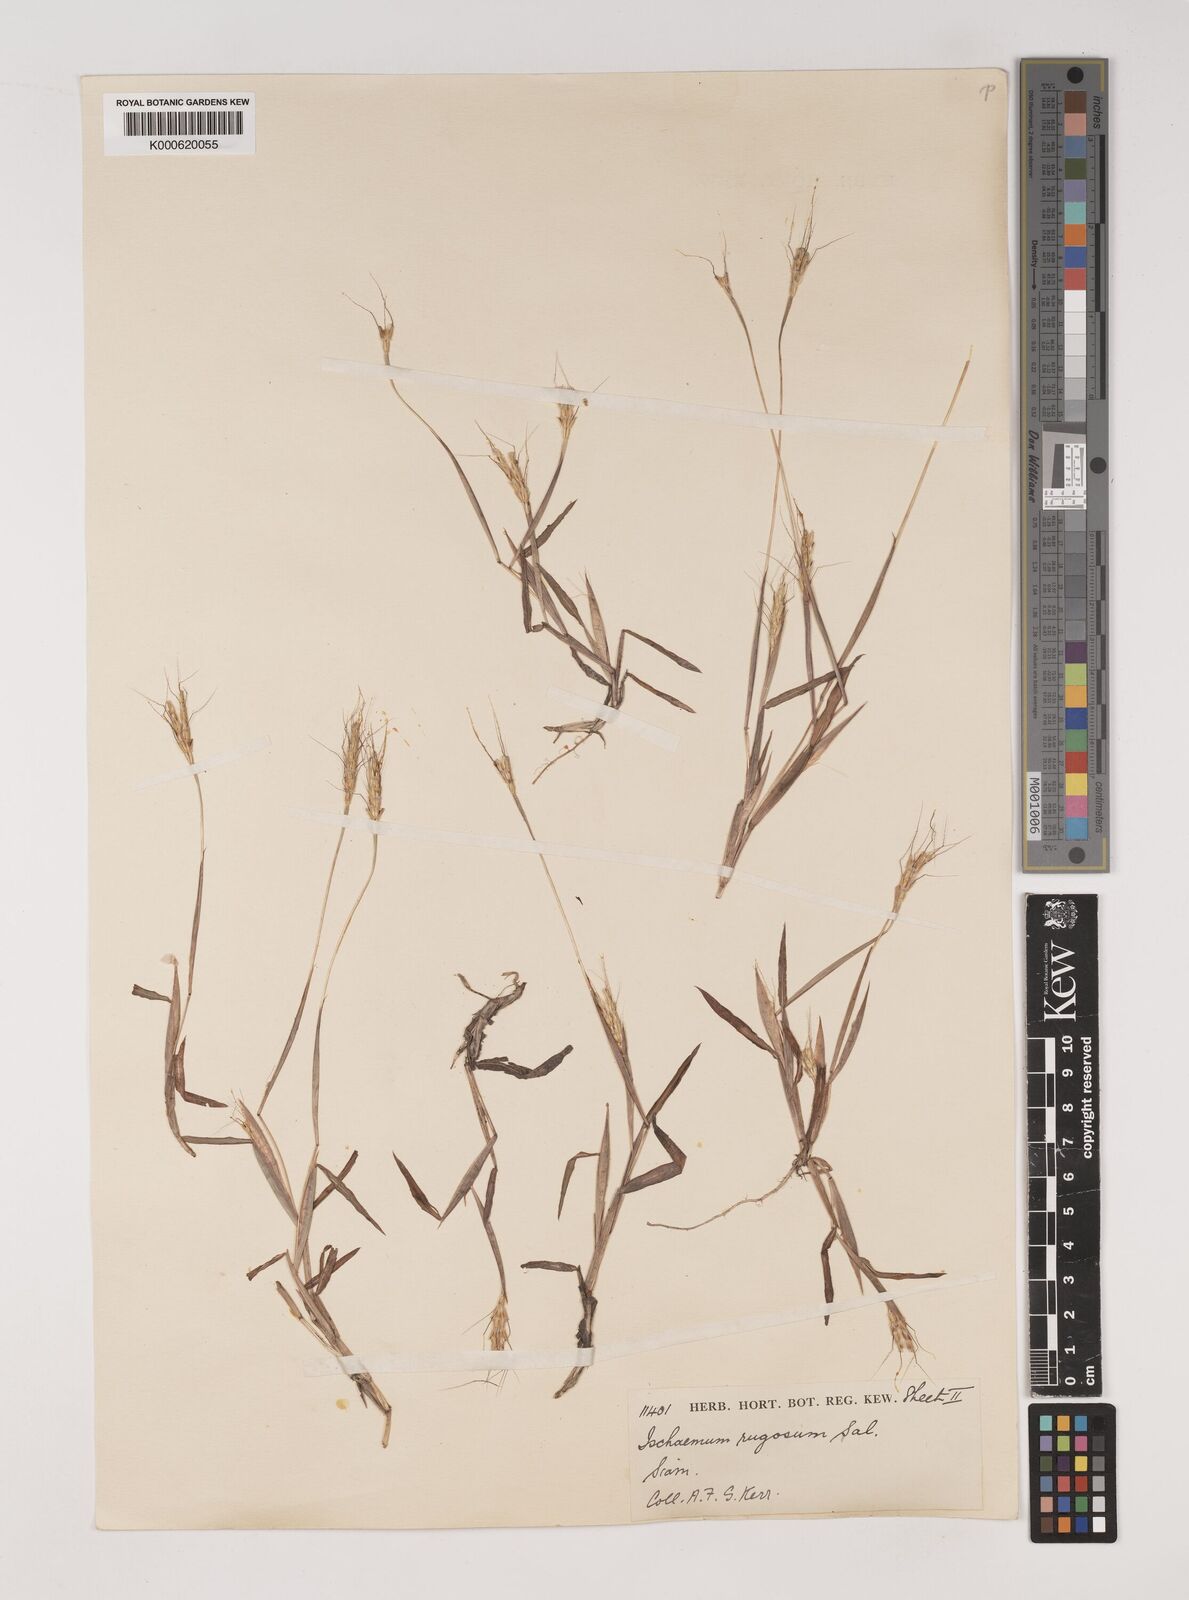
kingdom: Plantae
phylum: Tracheophyta
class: Liliopsida
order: Poales
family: Poaceae
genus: Ischaemum
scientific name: Ischaemum rugosum
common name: Saramatta grass
